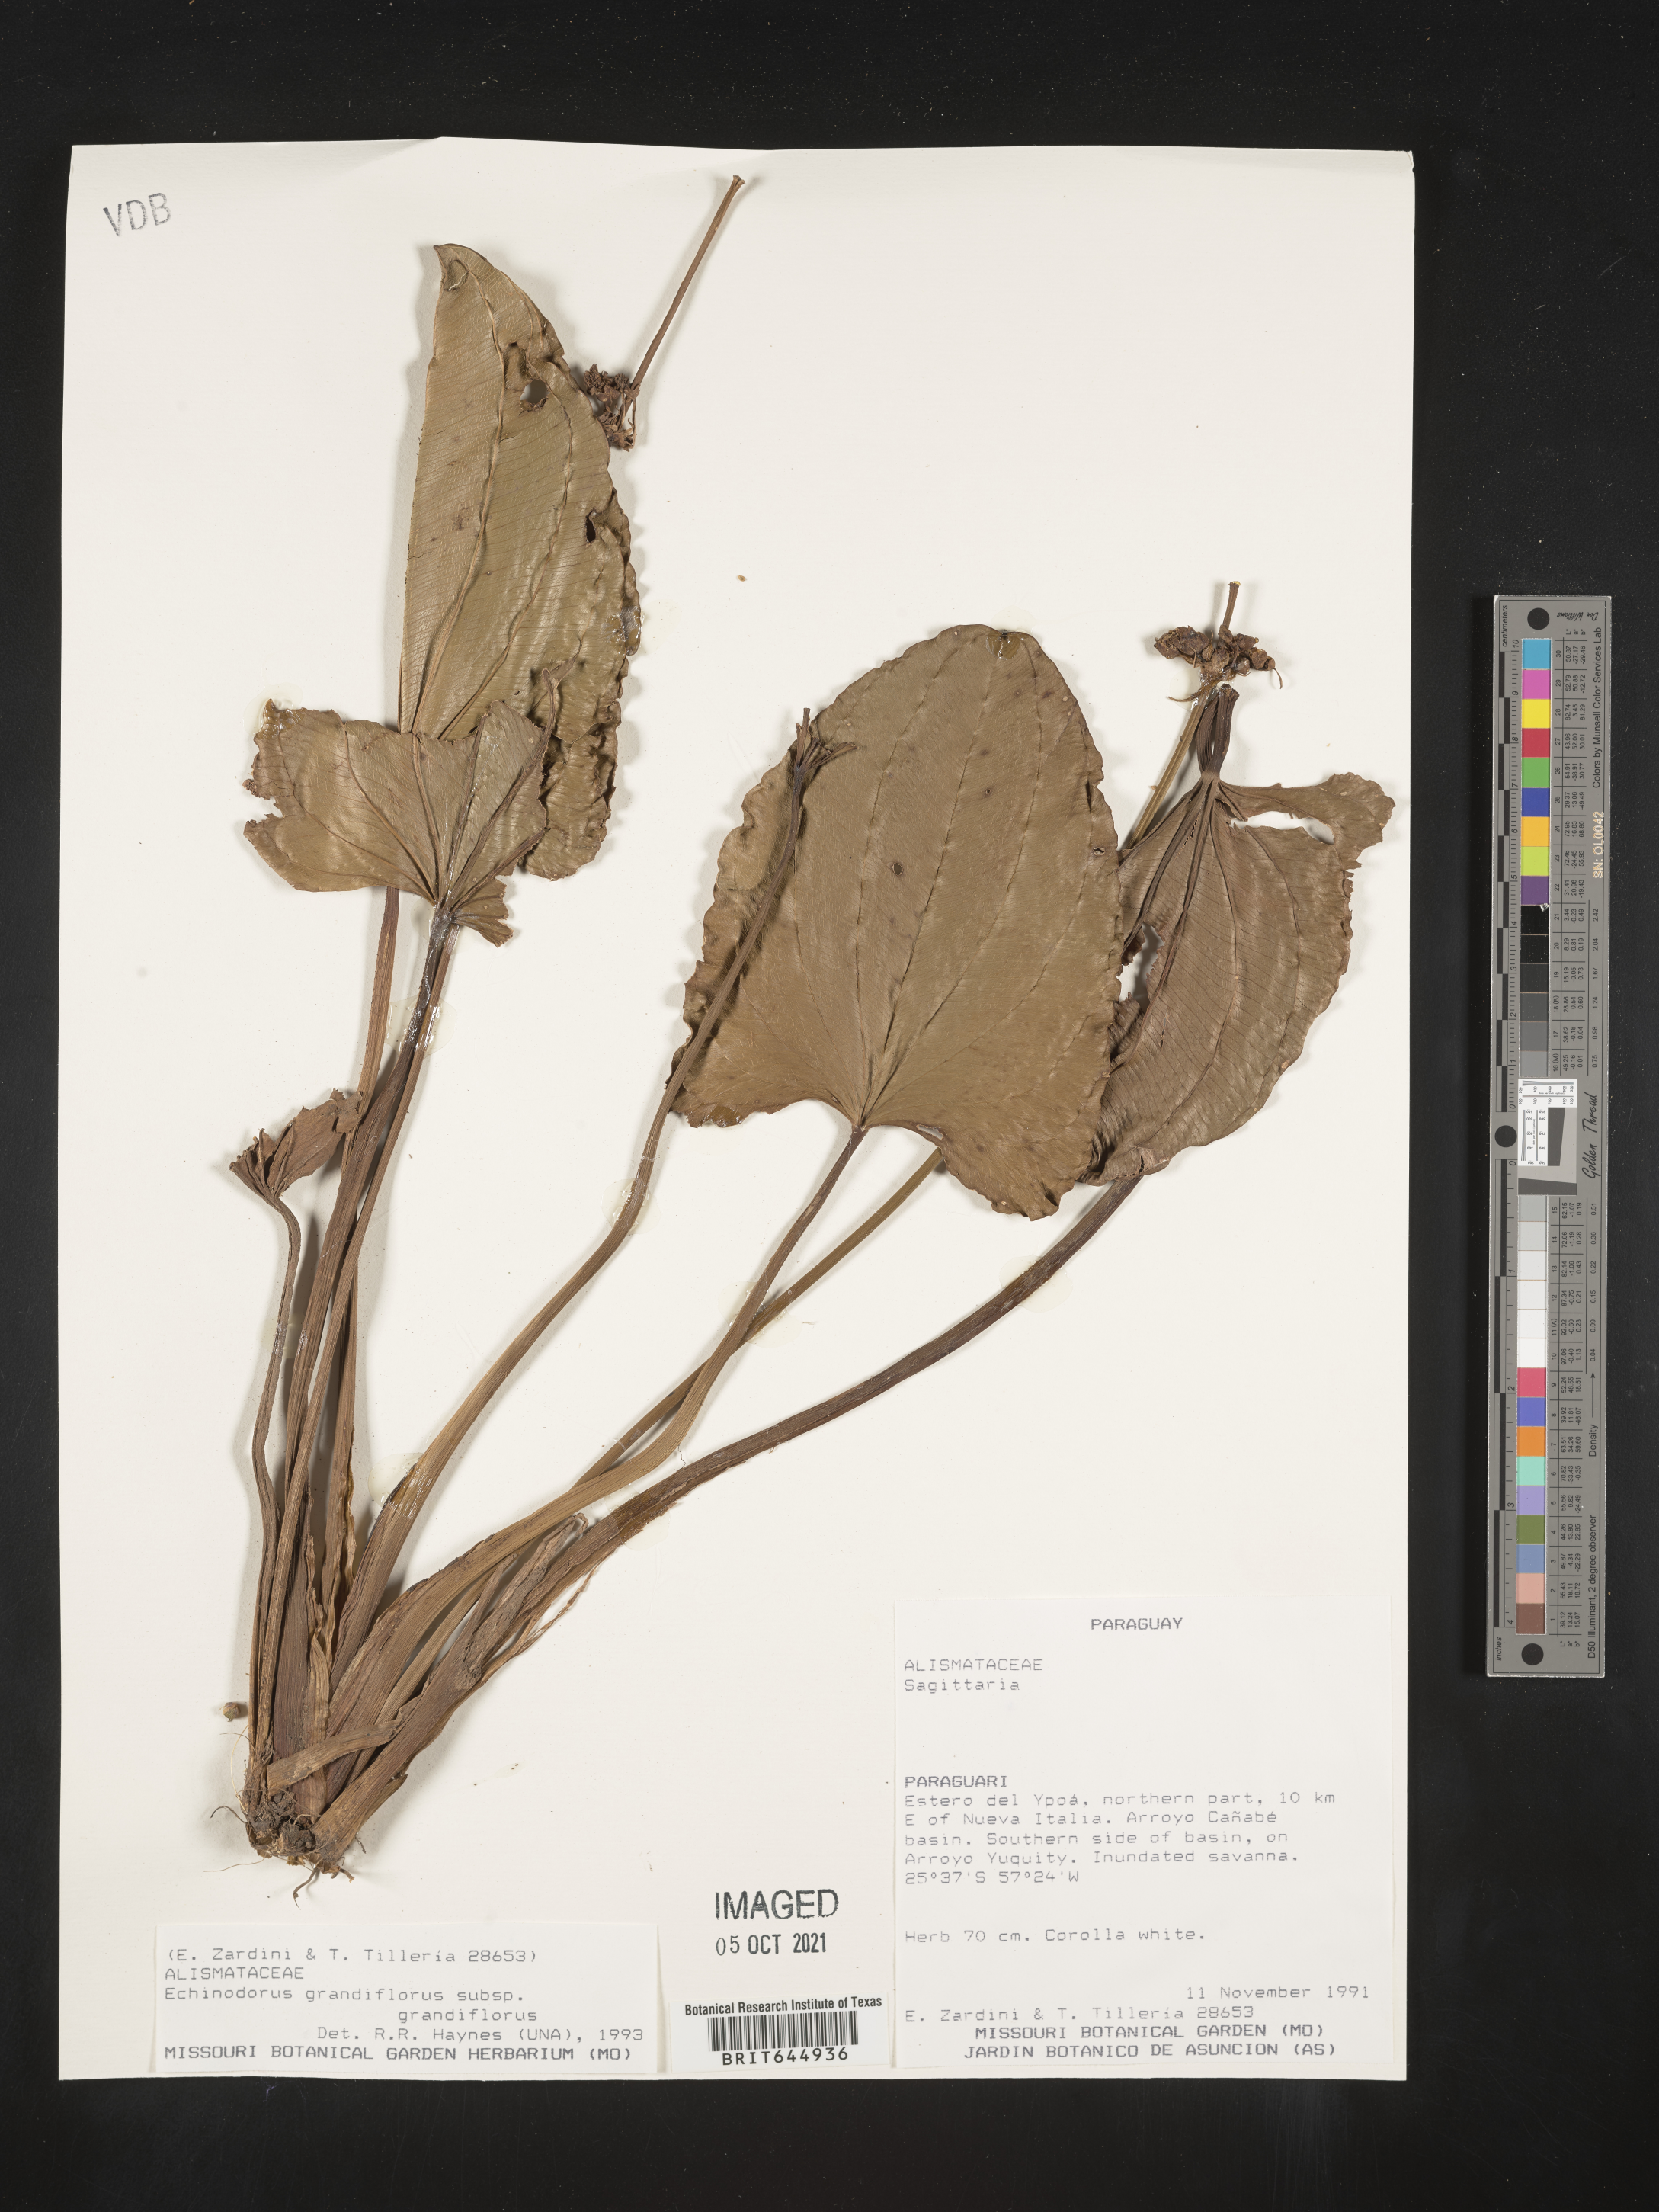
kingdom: Plantae
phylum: Tracheophyta
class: Liliopsida
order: Alismatales
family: Alismataceae
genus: Aquarius
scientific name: Aquarius grandiflorus
